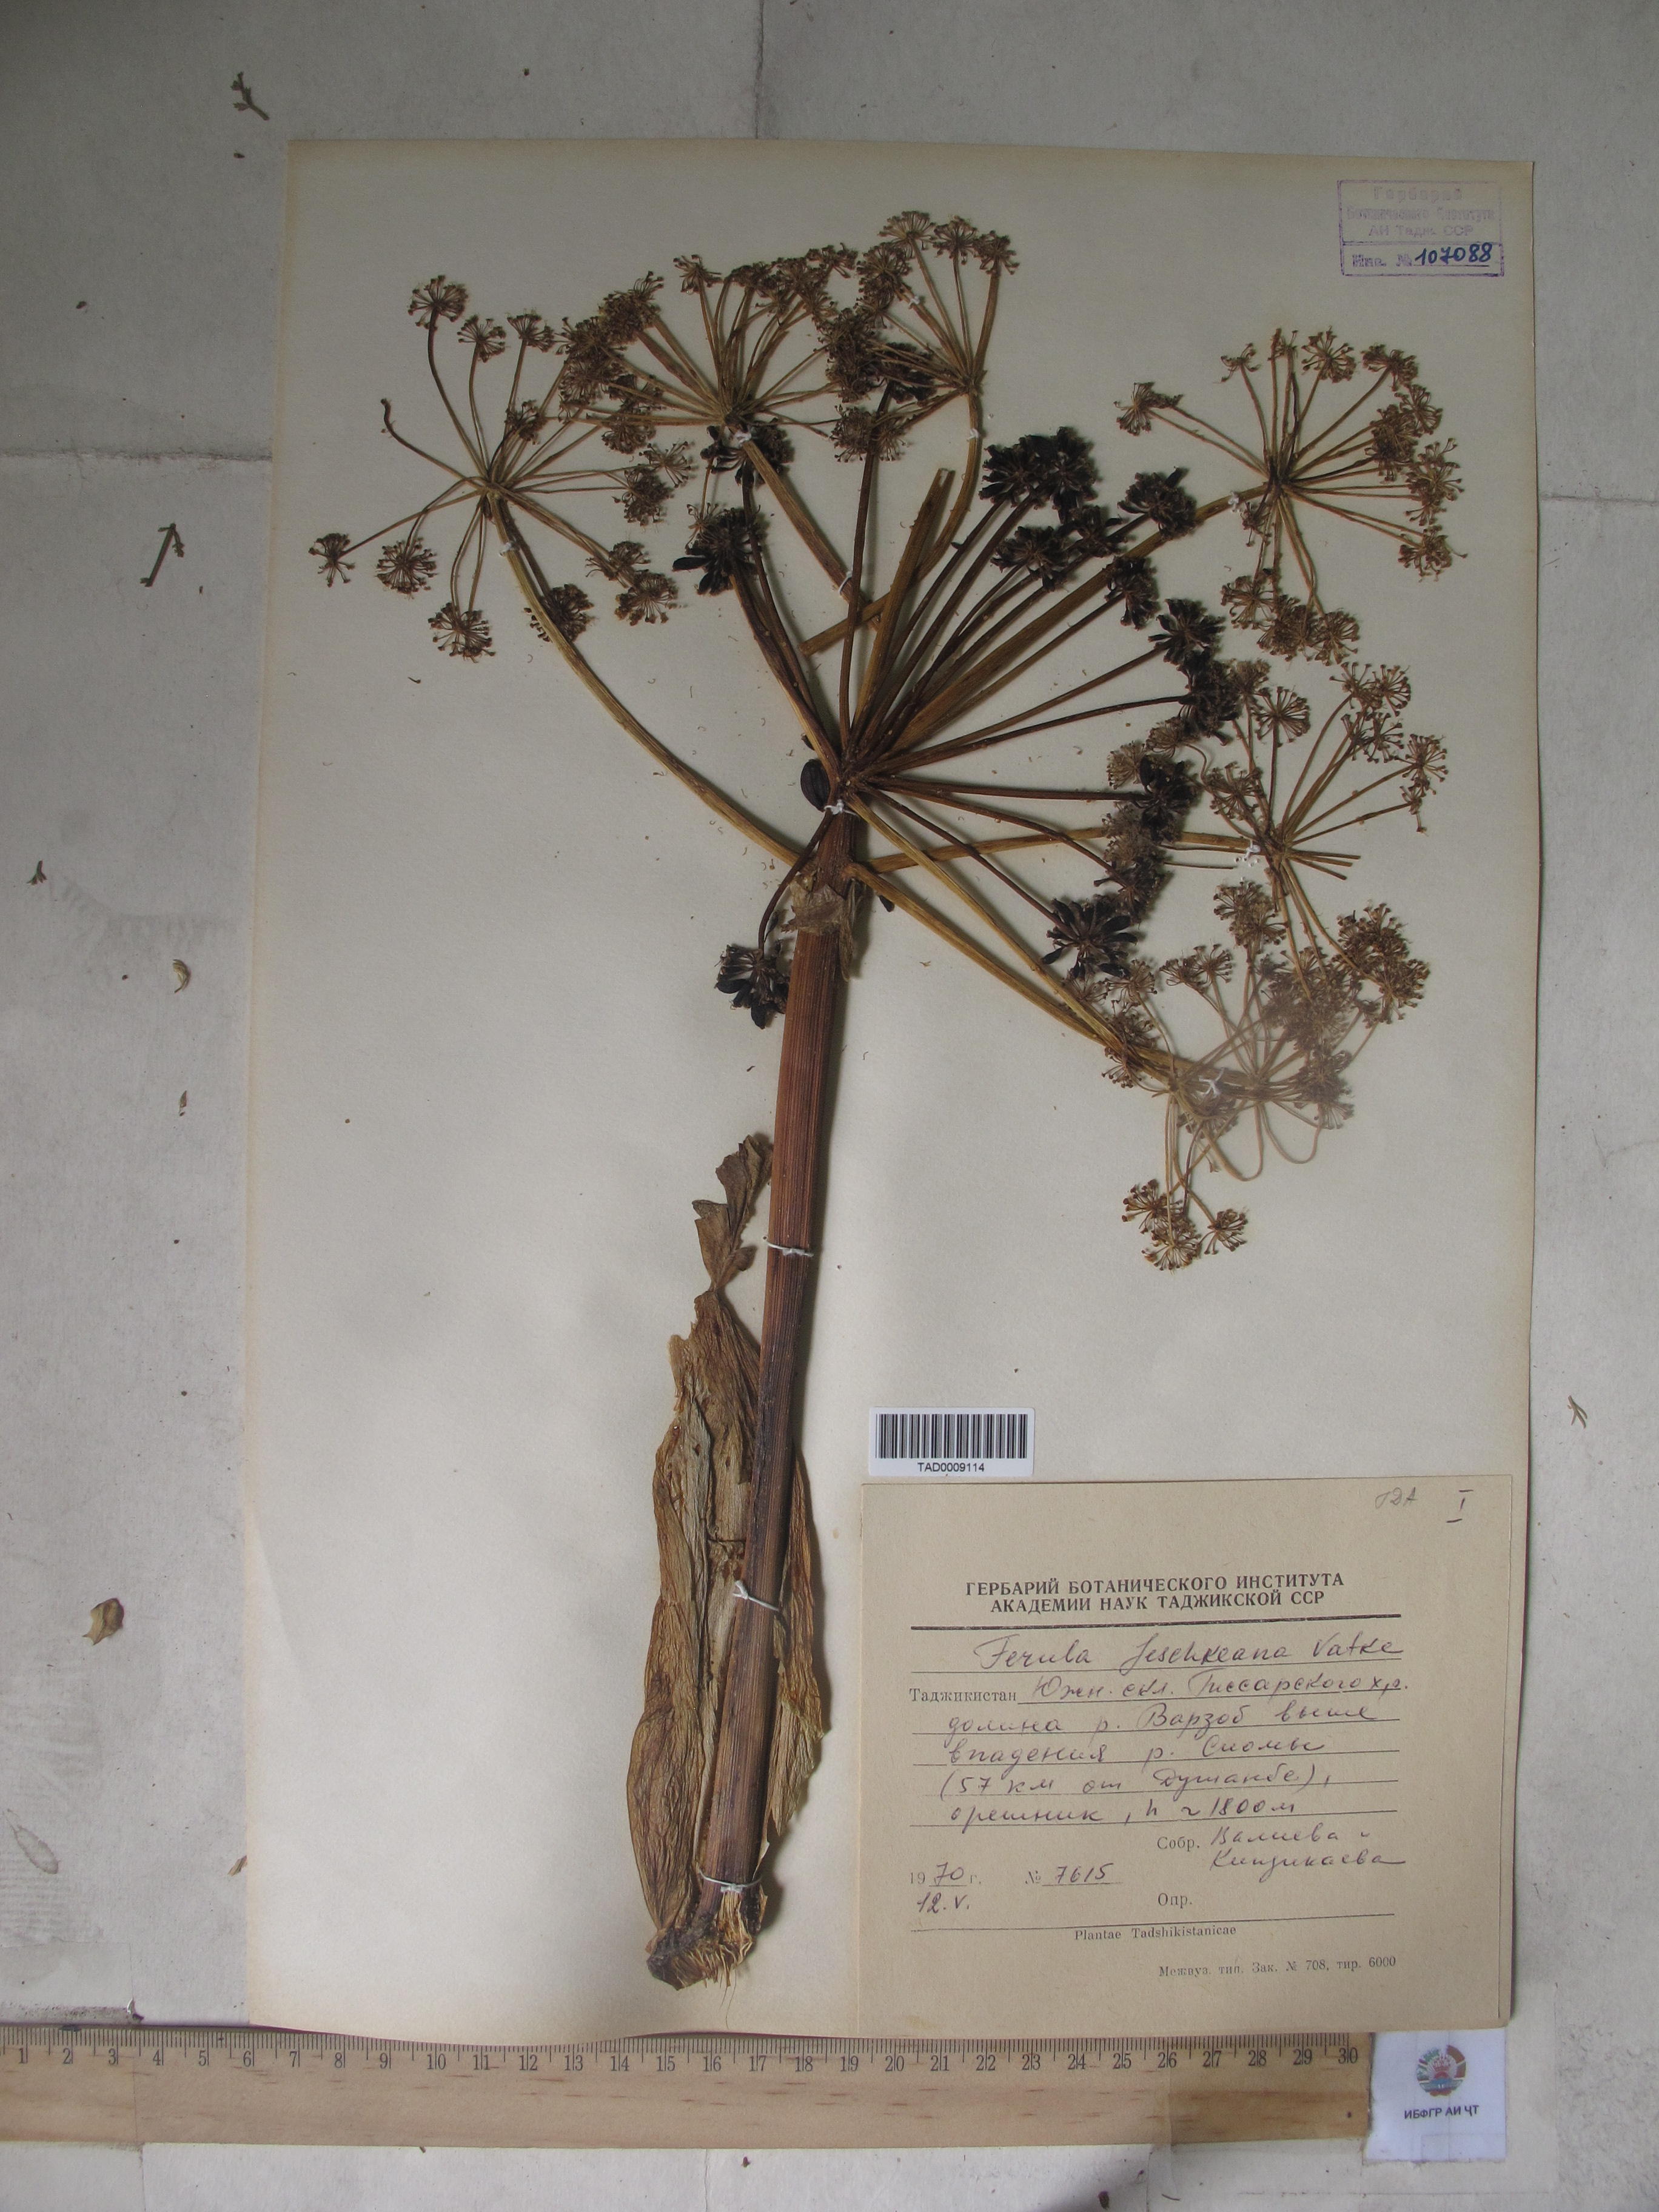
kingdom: Plantae
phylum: Tracheophyta
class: Magnoliopsida
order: Apiales
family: Apiaceae
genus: Ferula
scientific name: Ferula jaeschkeana
